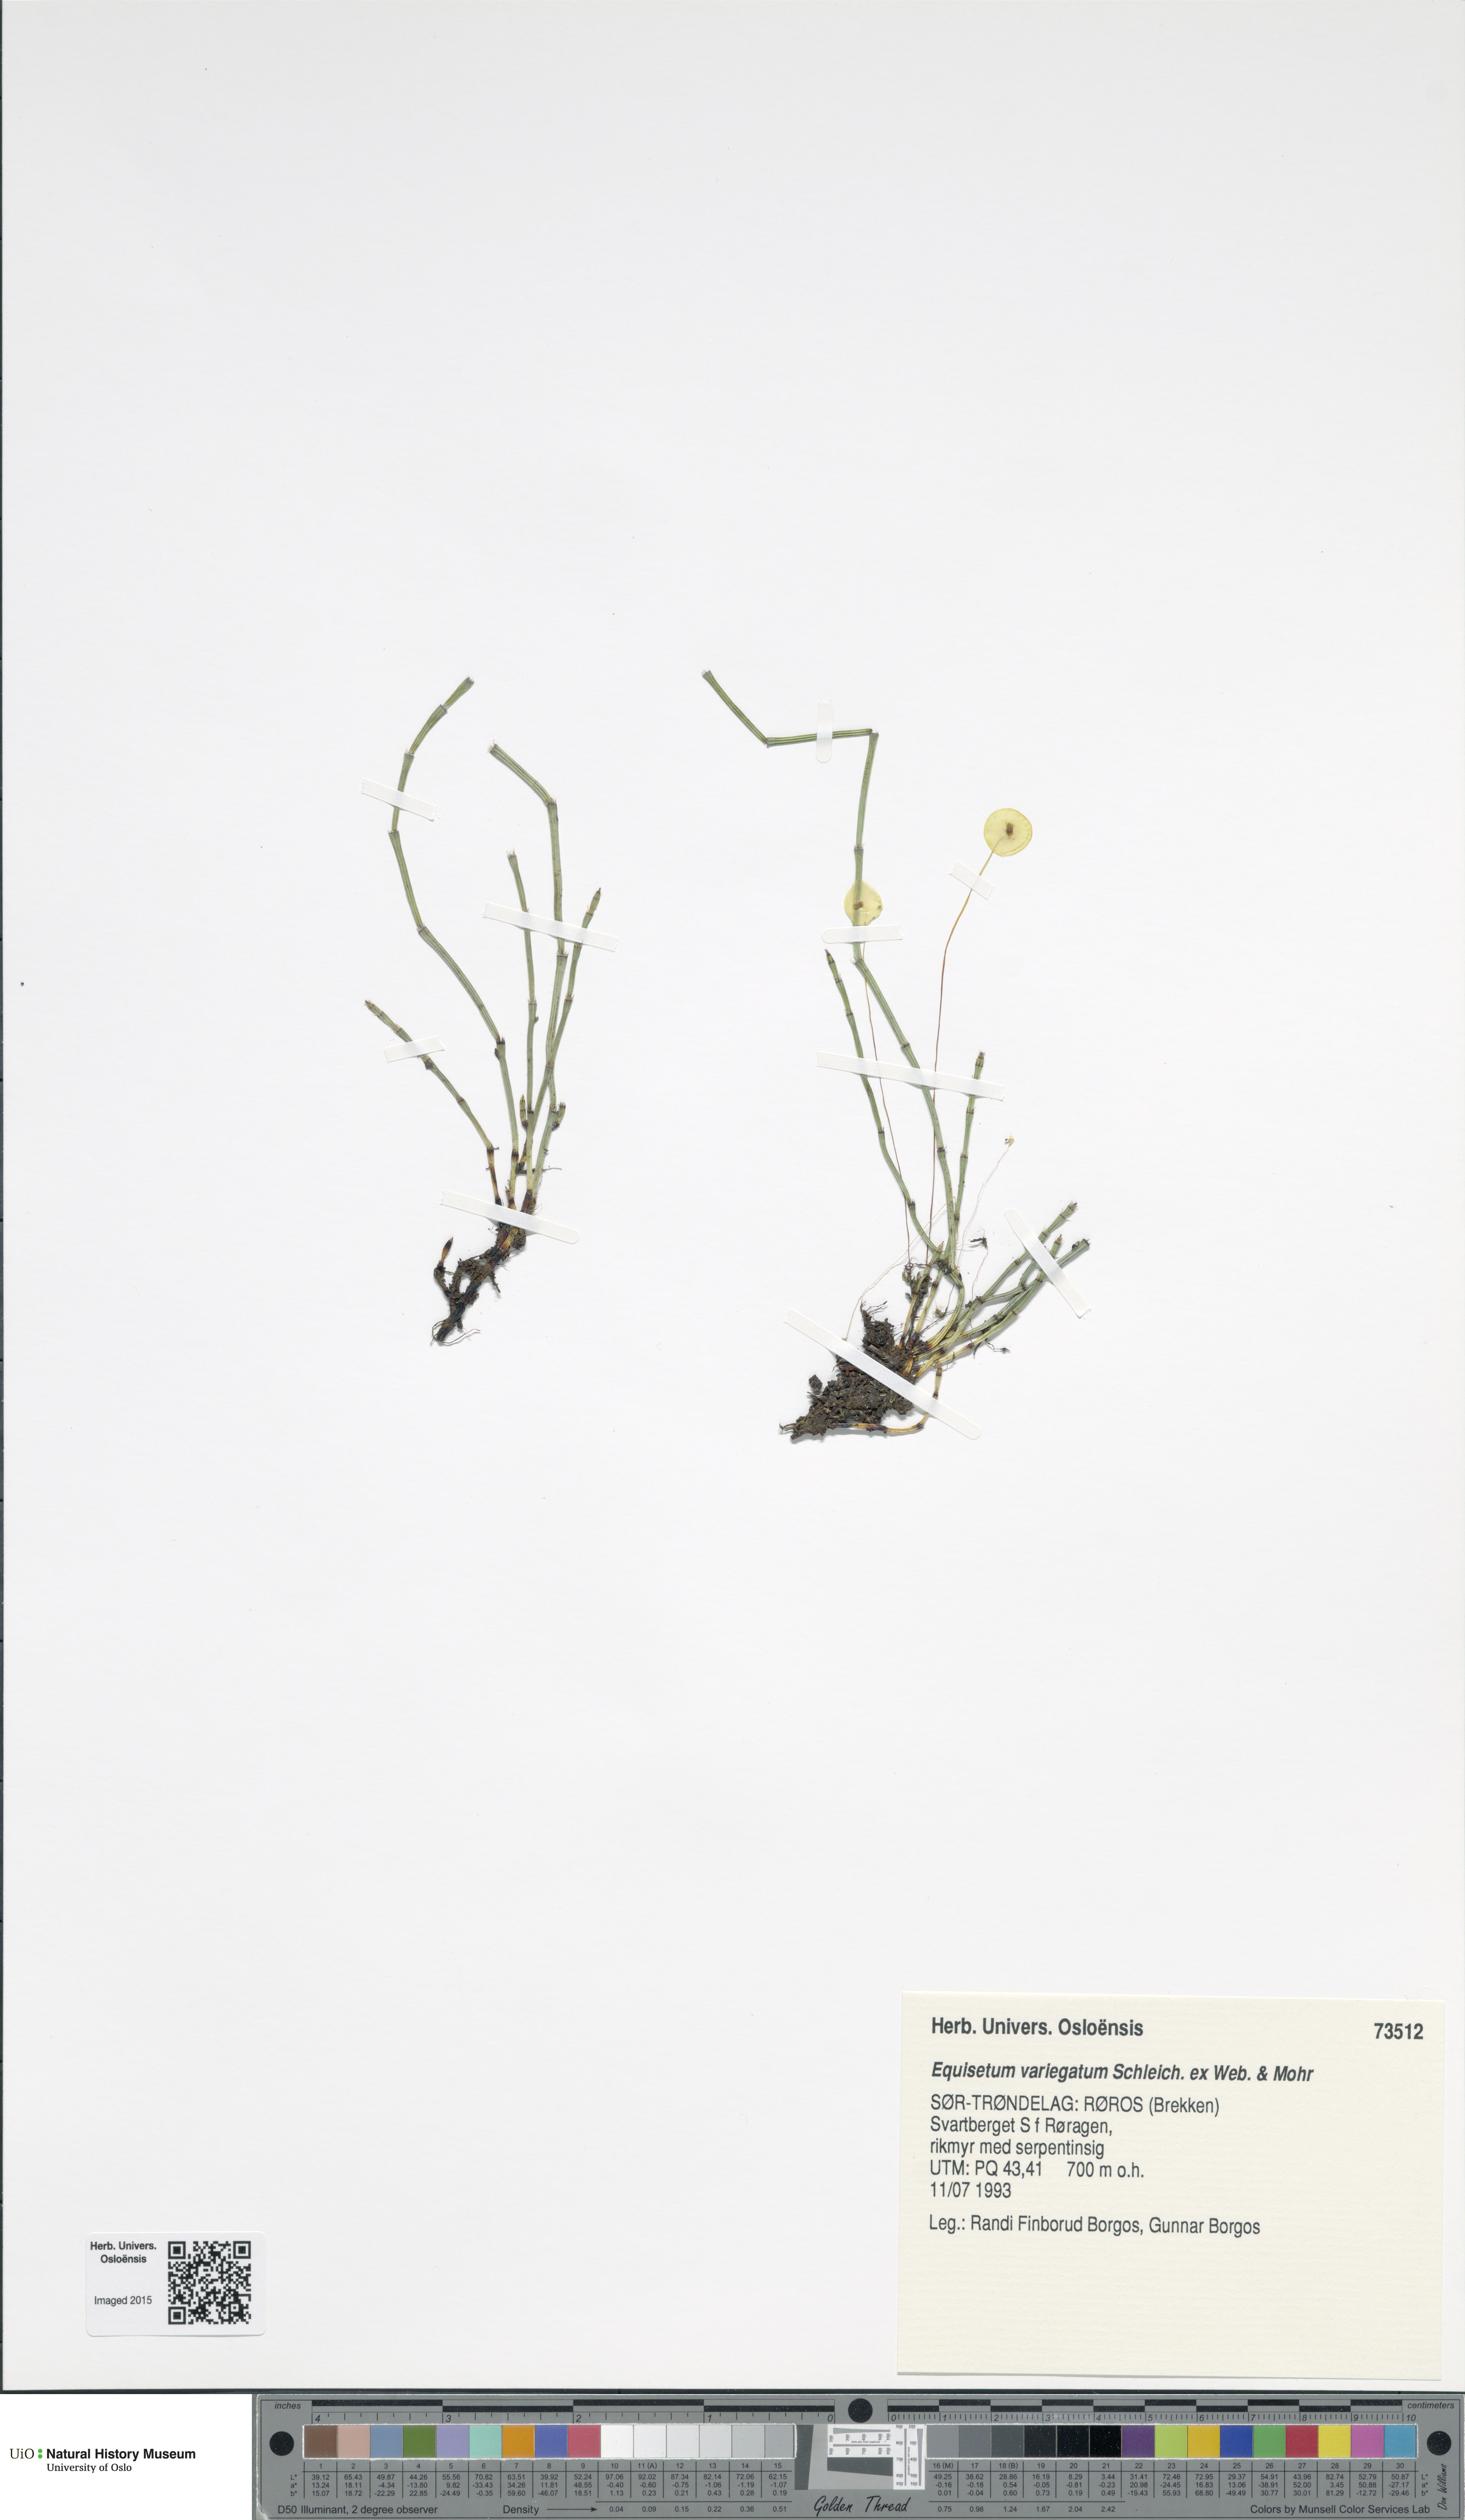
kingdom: Plantae
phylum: Tracheophyta
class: Polypodiopsida
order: Equisetales
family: Equisetaceae
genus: Equisetum
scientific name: Equisetum variegatum
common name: Variegated horsetail
